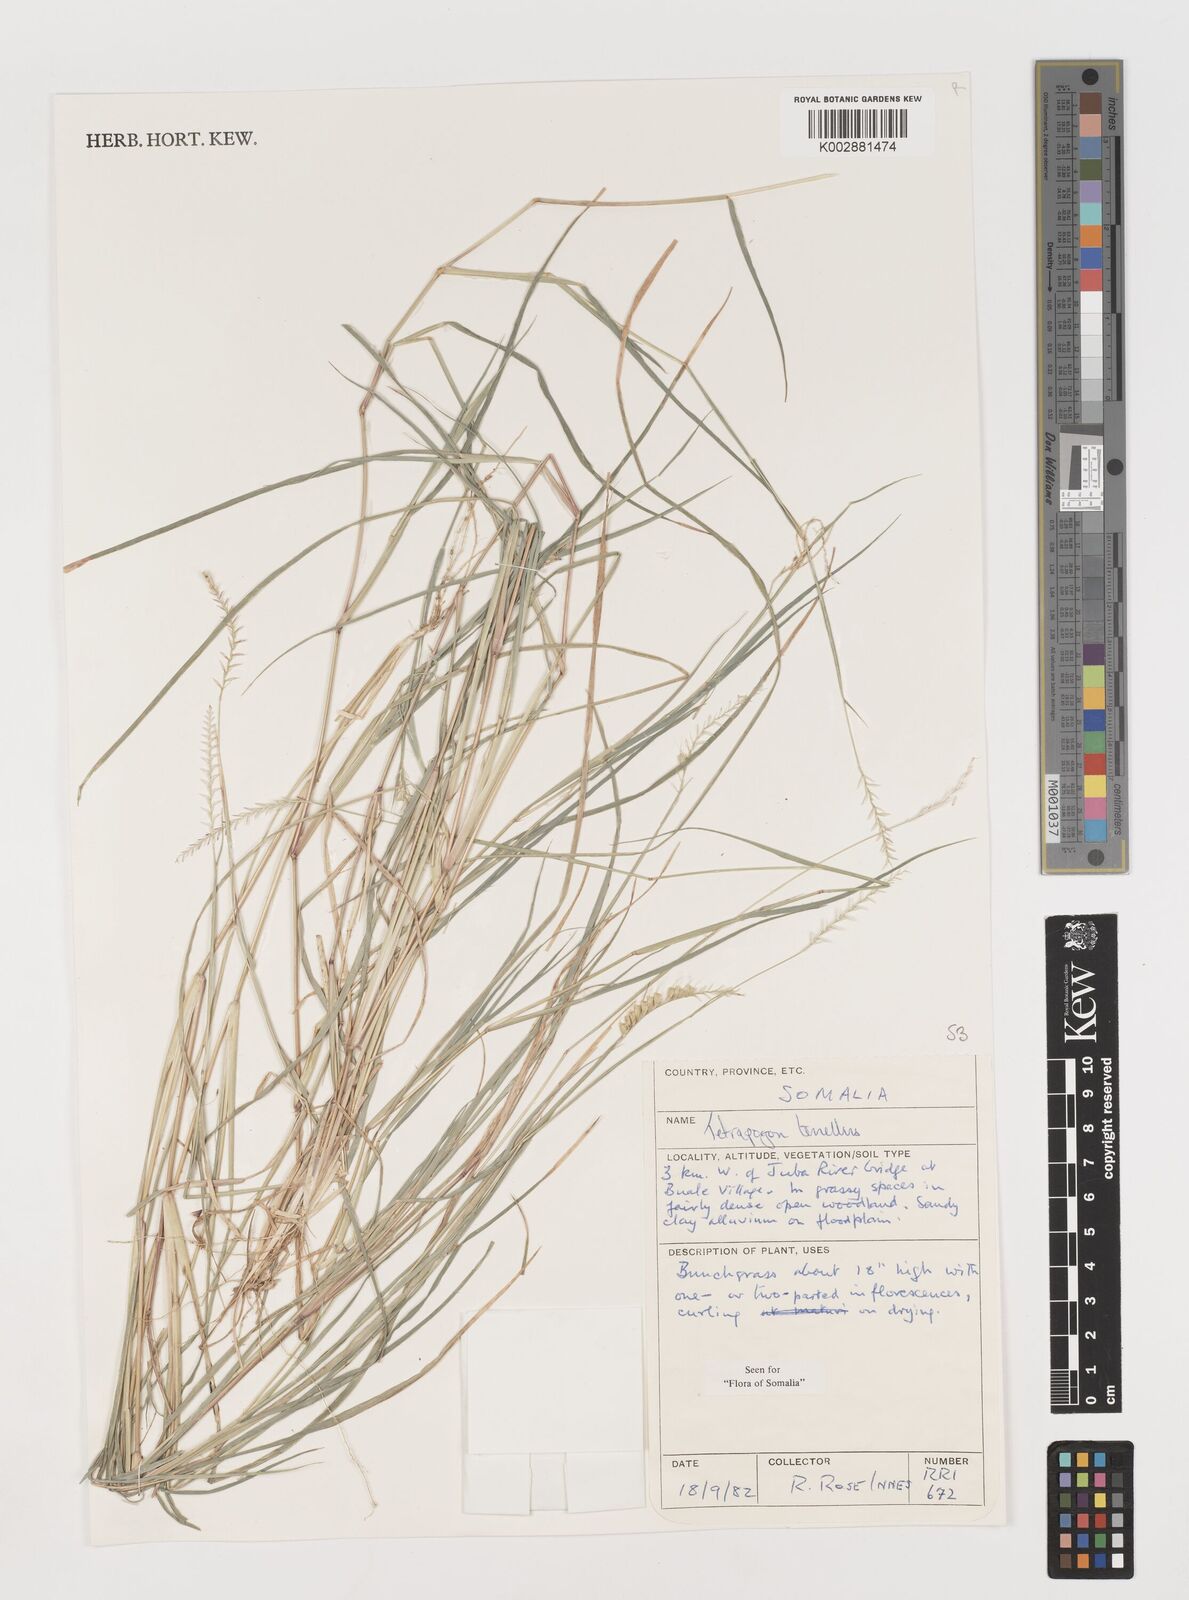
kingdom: Plantae
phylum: Tracheophyta
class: Liliopsida
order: Poales
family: Poaceae
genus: Tetrapogon
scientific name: Tetrapogon tenellus
